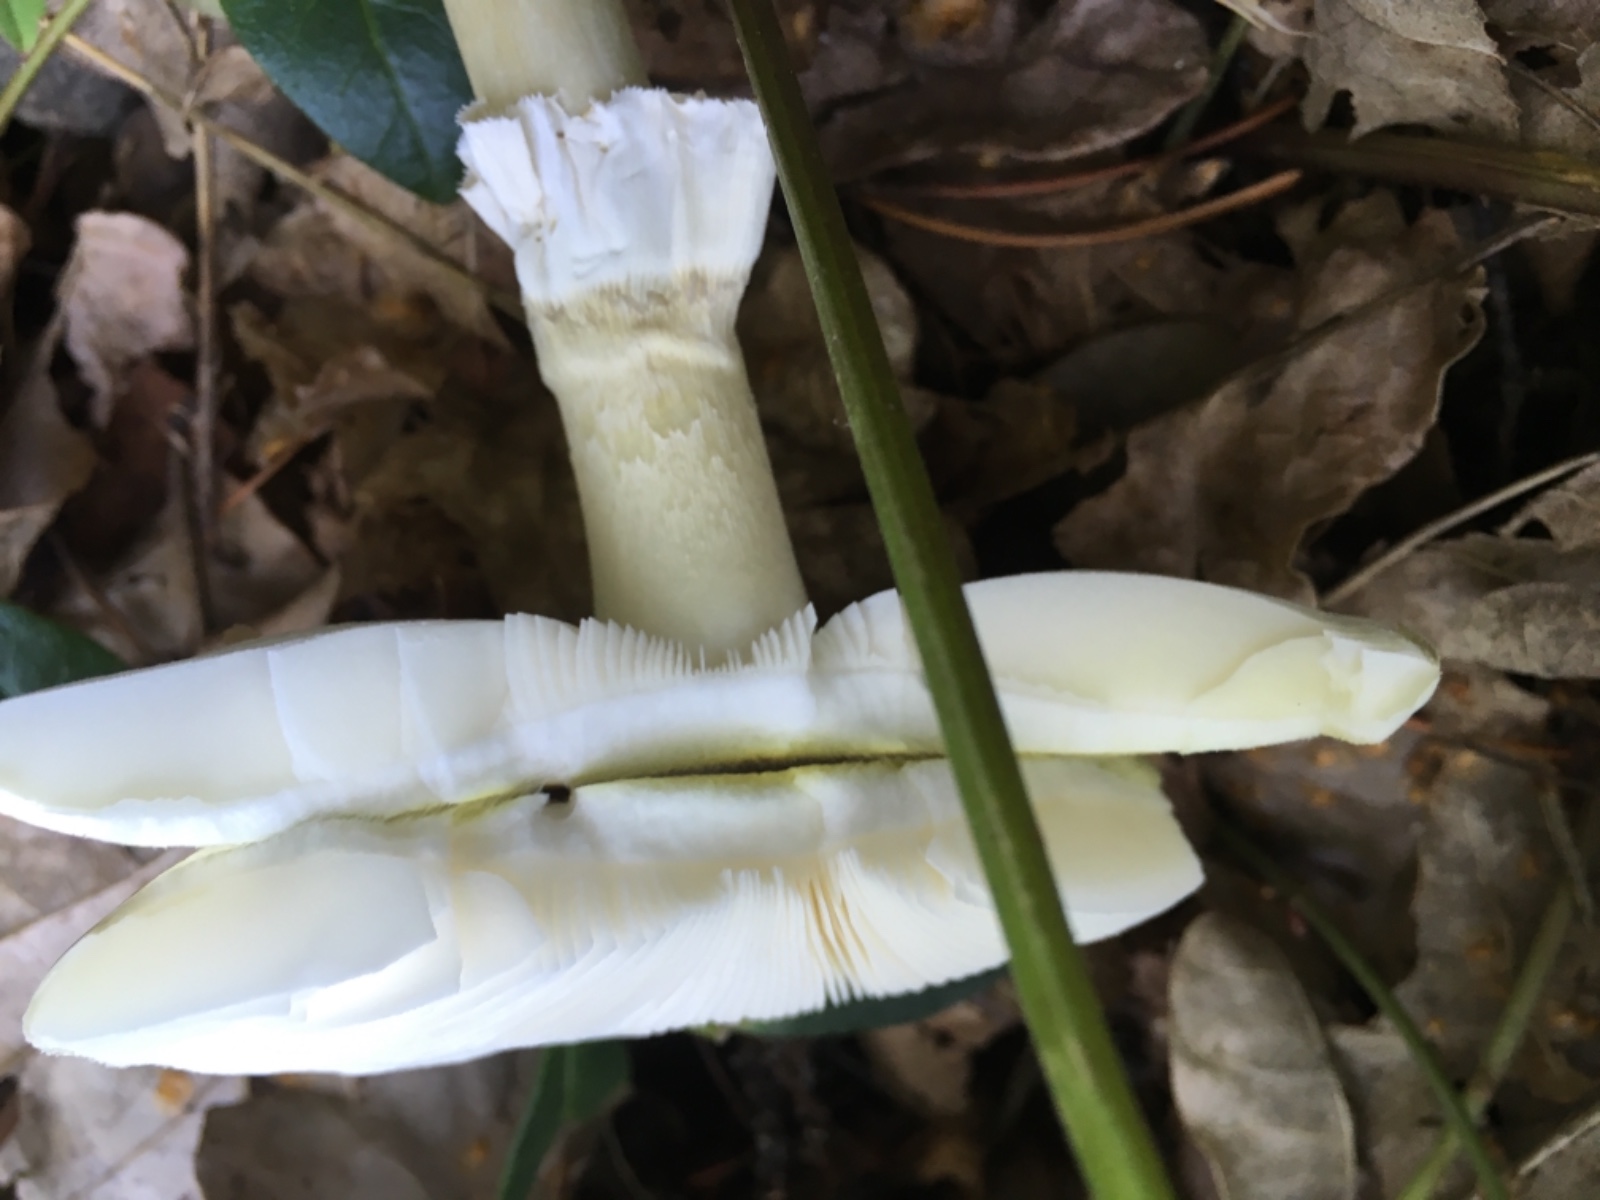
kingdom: Fungi
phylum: Basidiomycota
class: Agaricomycetes
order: Agaricales
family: Amanitaceae
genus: Amanita
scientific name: Amanita phalloides
